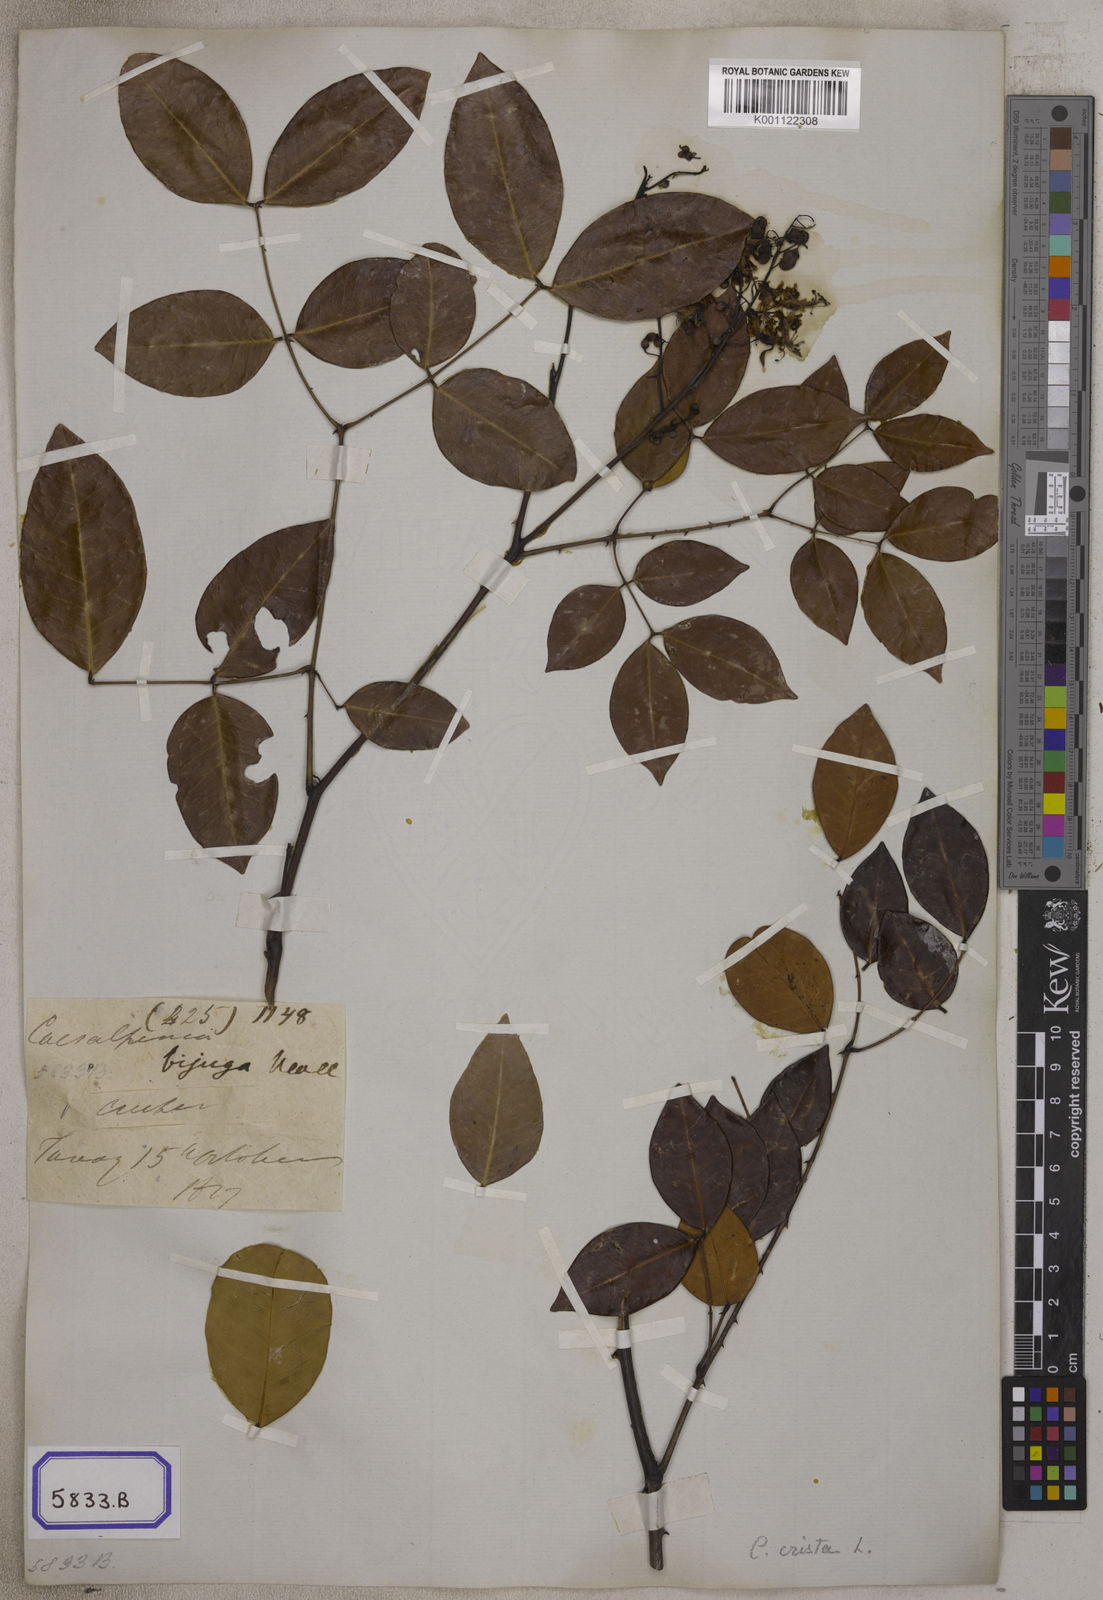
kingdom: Plantae
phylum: Tracheophyta
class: Magnoliopsida
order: Fabales
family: Fabaceae
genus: Caesalpinia
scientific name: Caesalpinia
